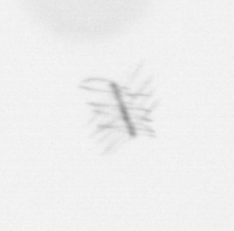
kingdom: Chromista
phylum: Ochrophyta
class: Bacillariophyceae
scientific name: Bacillariophyceae
